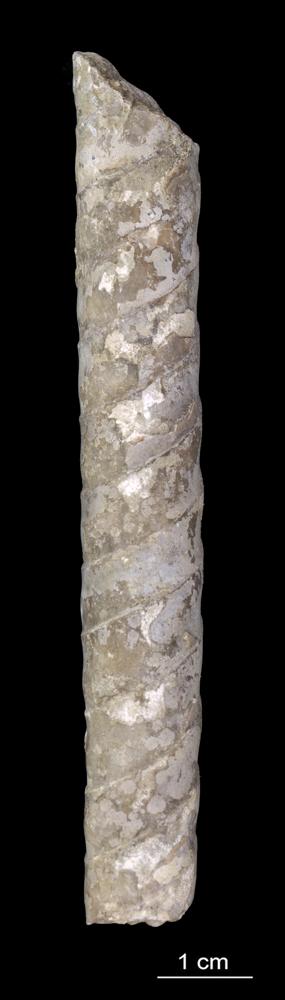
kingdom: Animalia
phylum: Mollusca
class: Cephalopoda
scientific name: Cephalopoda
